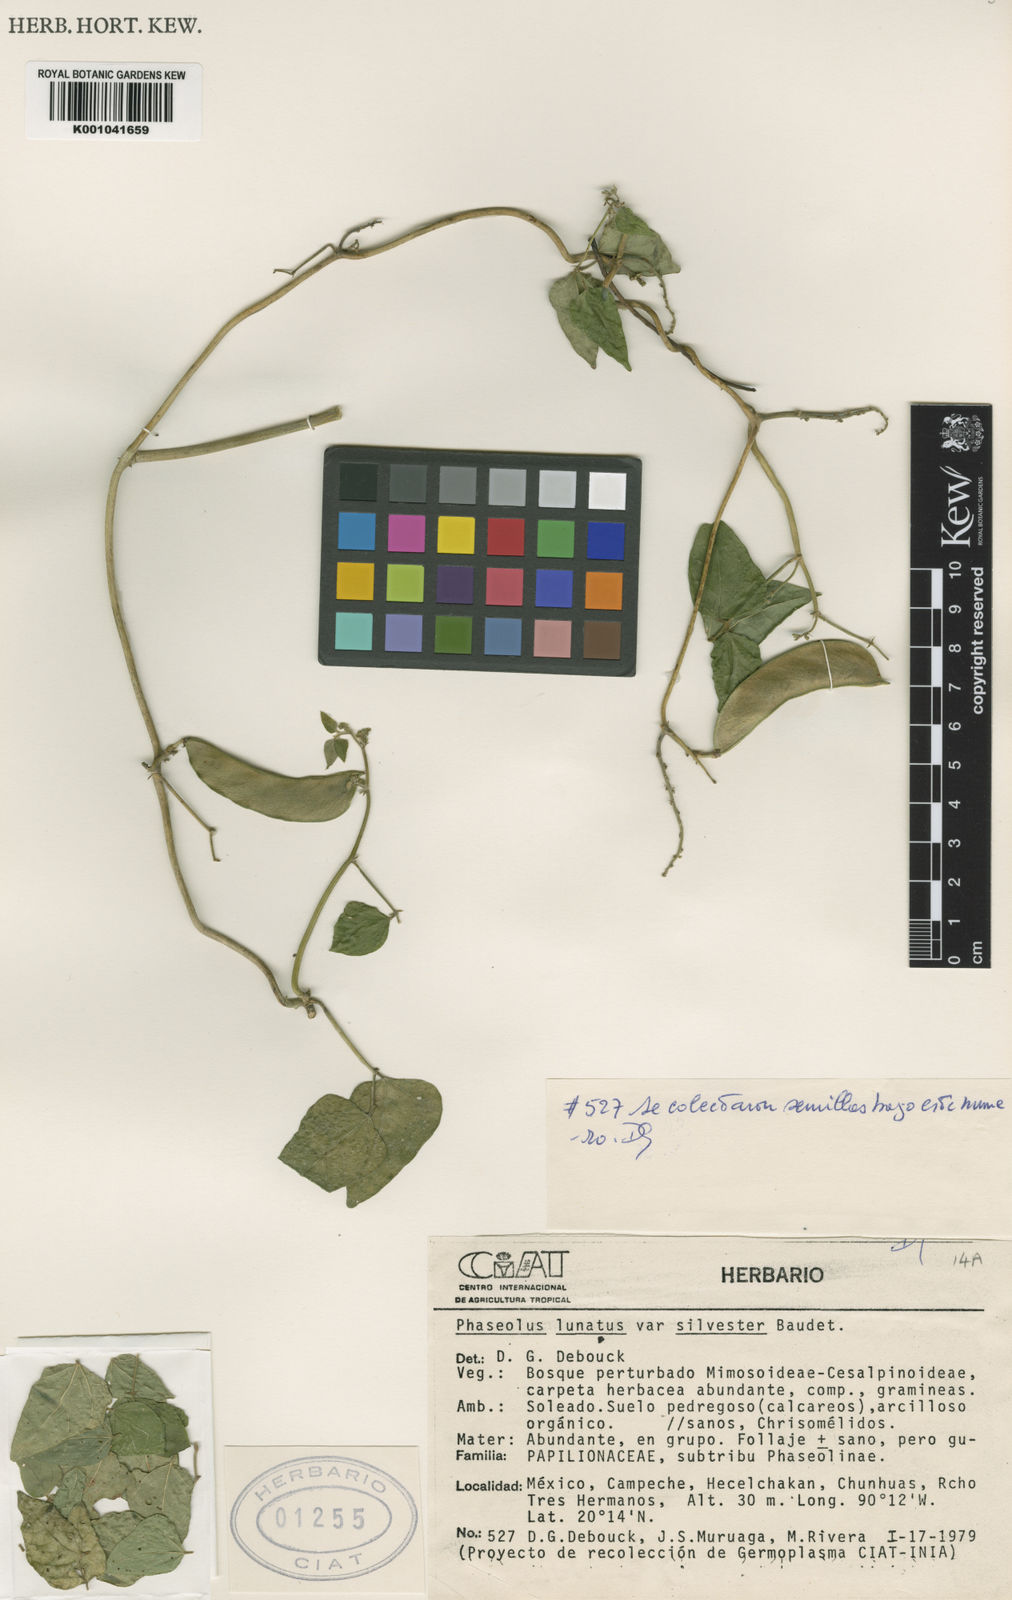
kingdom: Plantae
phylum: Tracheophyta
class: Magnoliopsida
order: Fabales
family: Fabaceae
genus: Phaseolus
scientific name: Phaseolus lunatus
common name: Sieva bean
